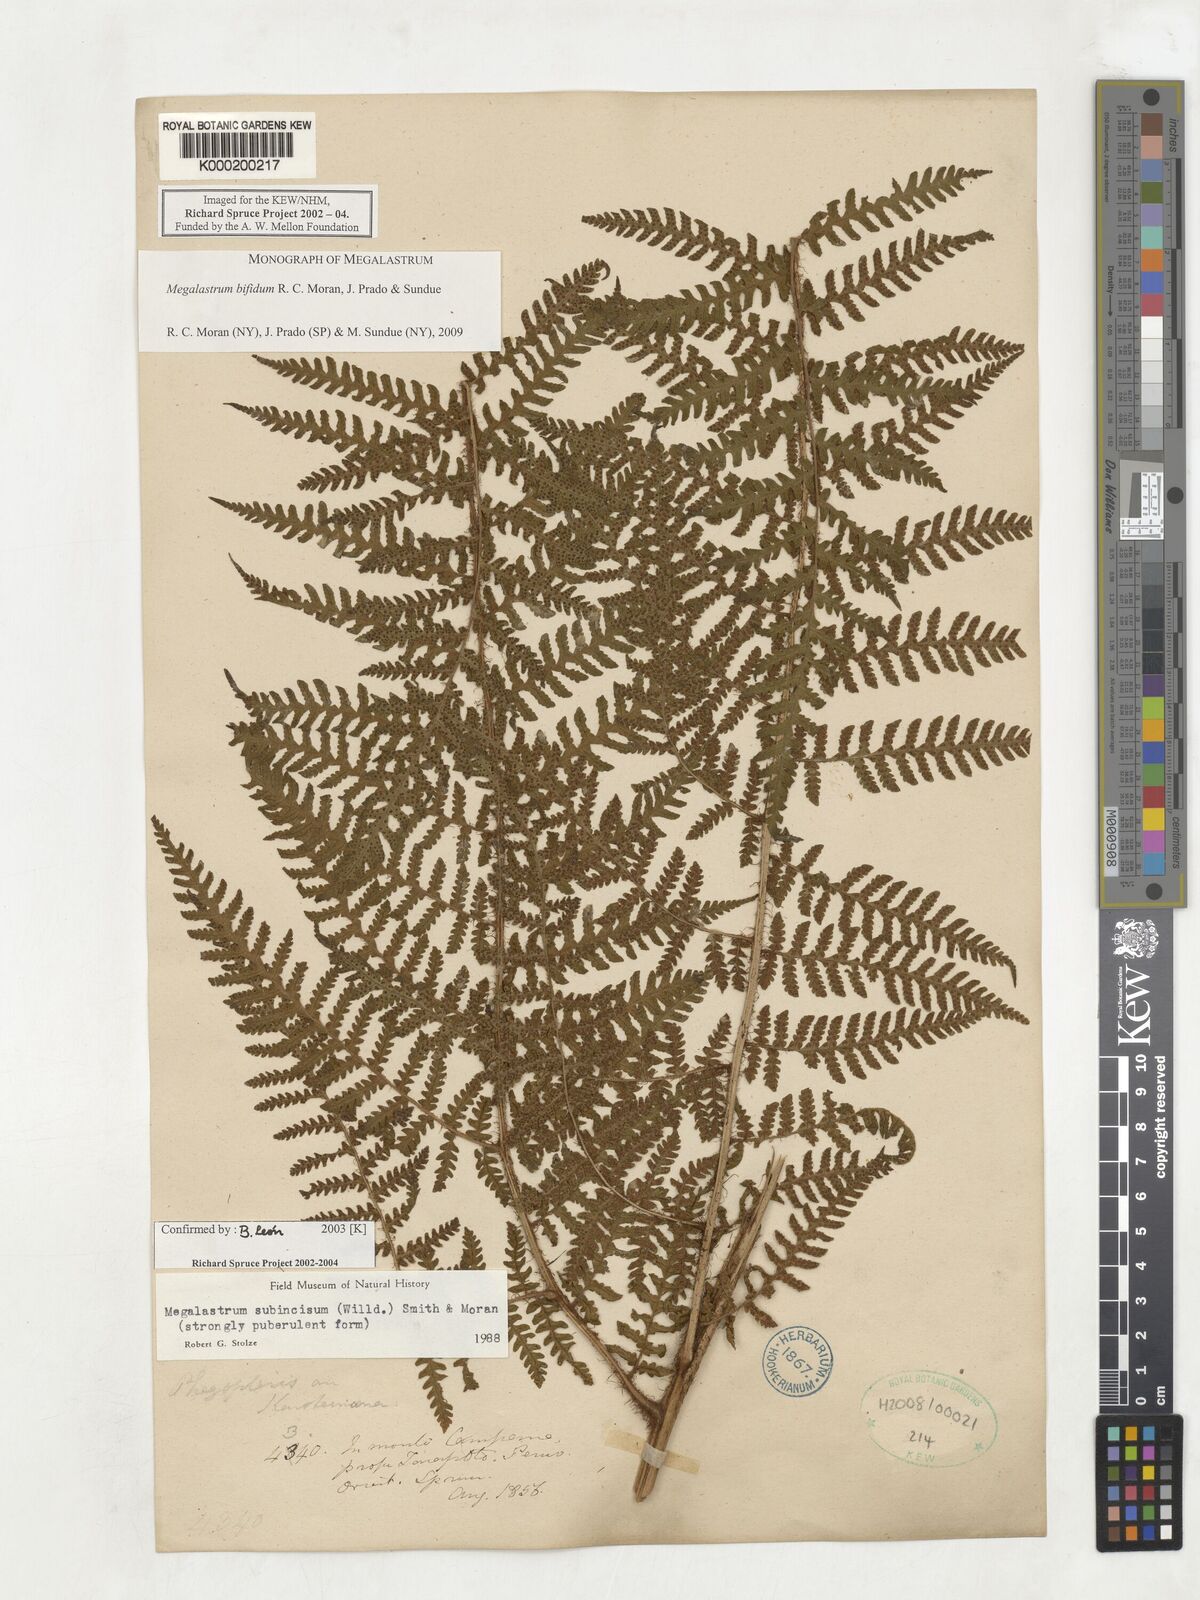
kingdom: Plantae
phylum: Tracheophyta
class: Polypodiopsida
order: Polypodiales
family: Dryopteridaceae
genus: Megalastrum
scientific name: Megalastrum
